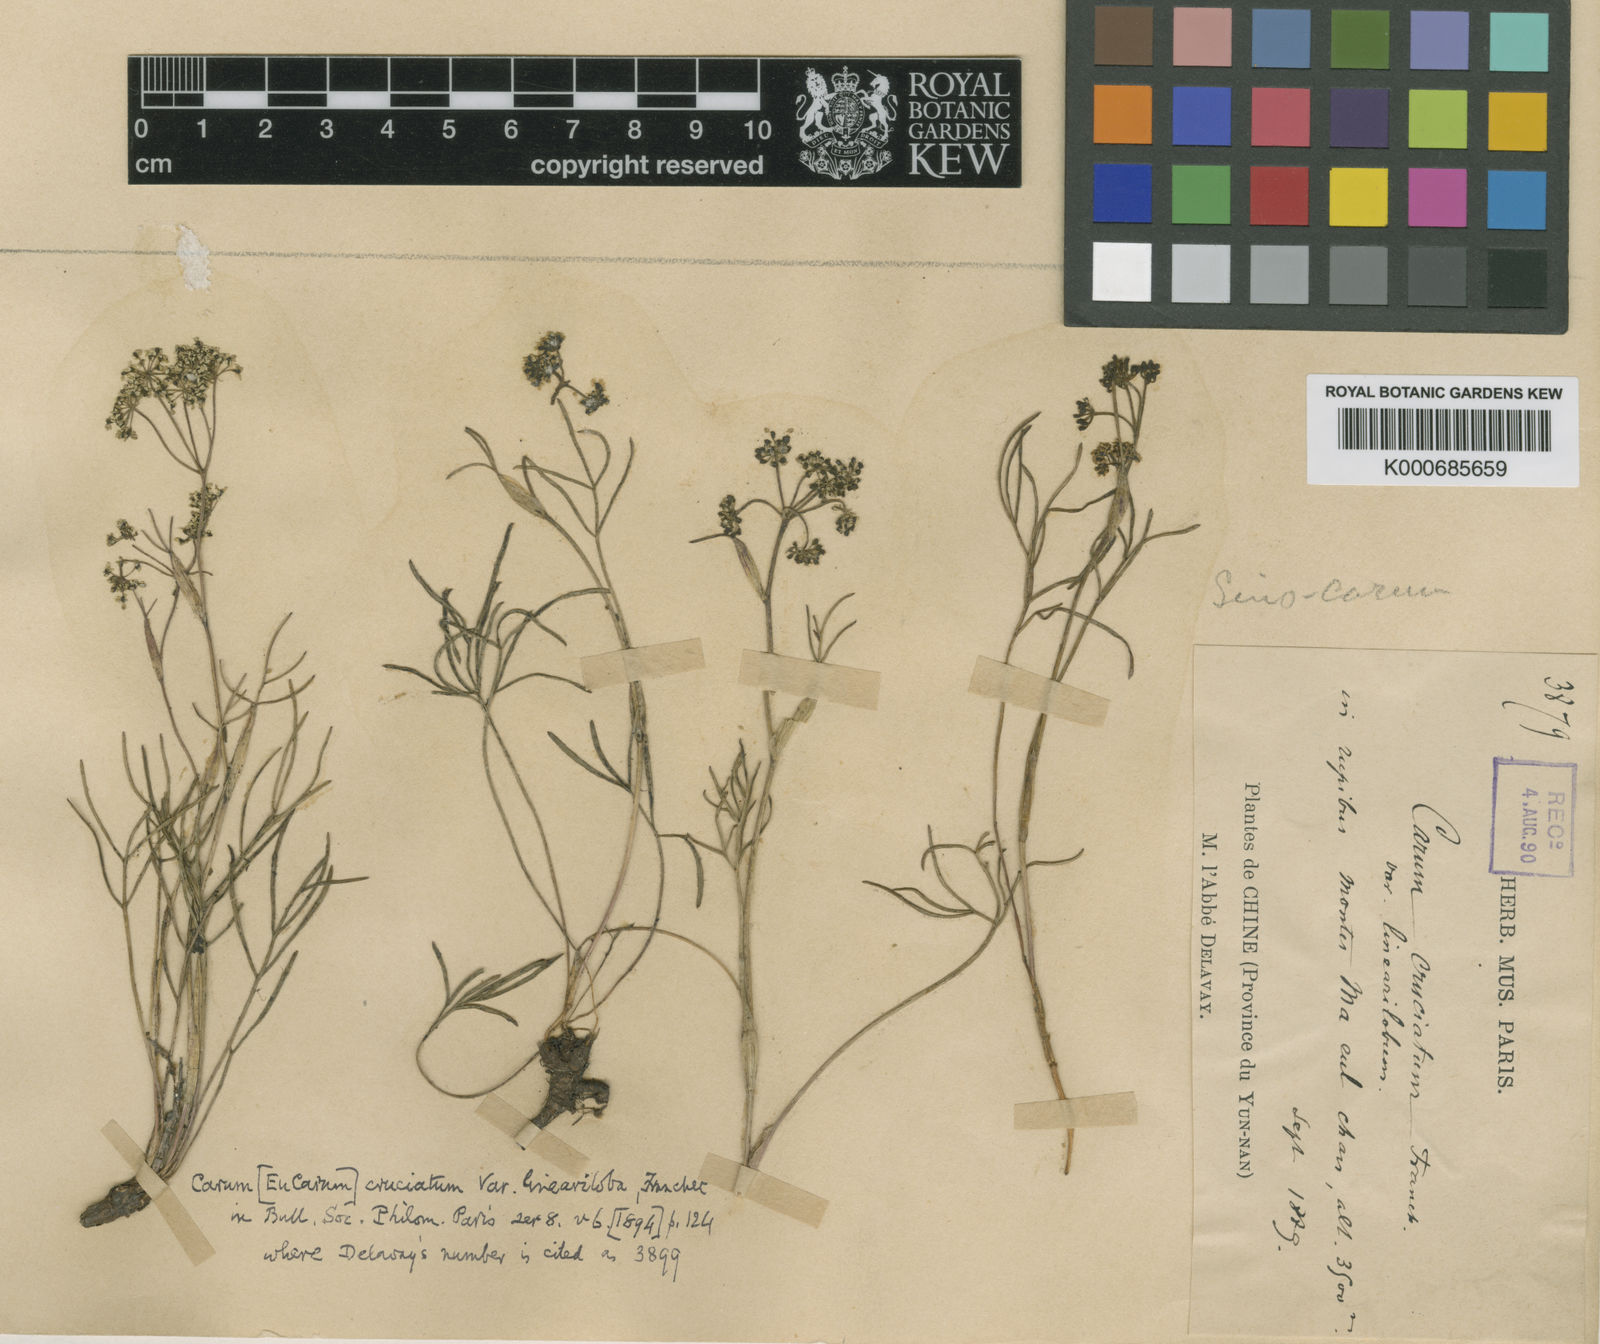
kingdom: Plantae
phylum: Tracheophyta
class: Magnoliopsida
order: Apiales
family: Apiaceae
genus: Sinocarum
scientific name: Sinocarum cruciatum
